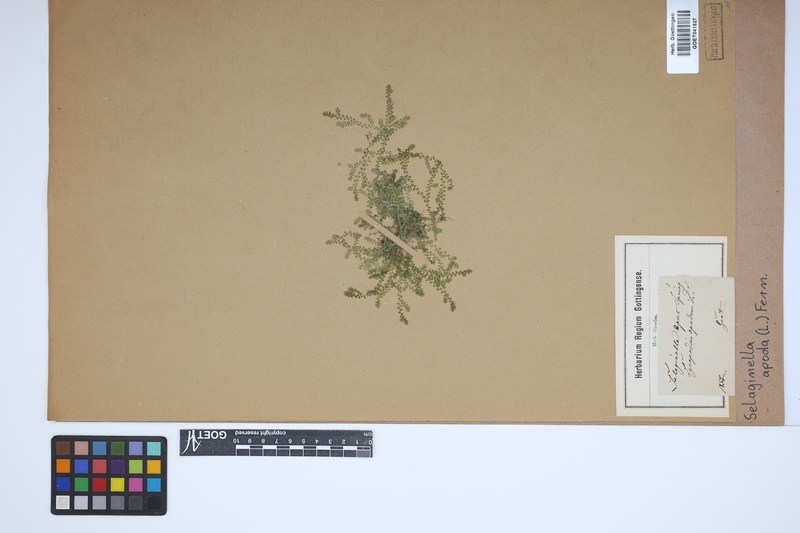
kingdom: Plantae
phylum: Tracheophyta
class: Lycopodiopsida
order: Selaginellales
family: Selaginellaceae
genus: Selaginella
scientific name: Selaginella apoda
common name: Creeping spikemoss
